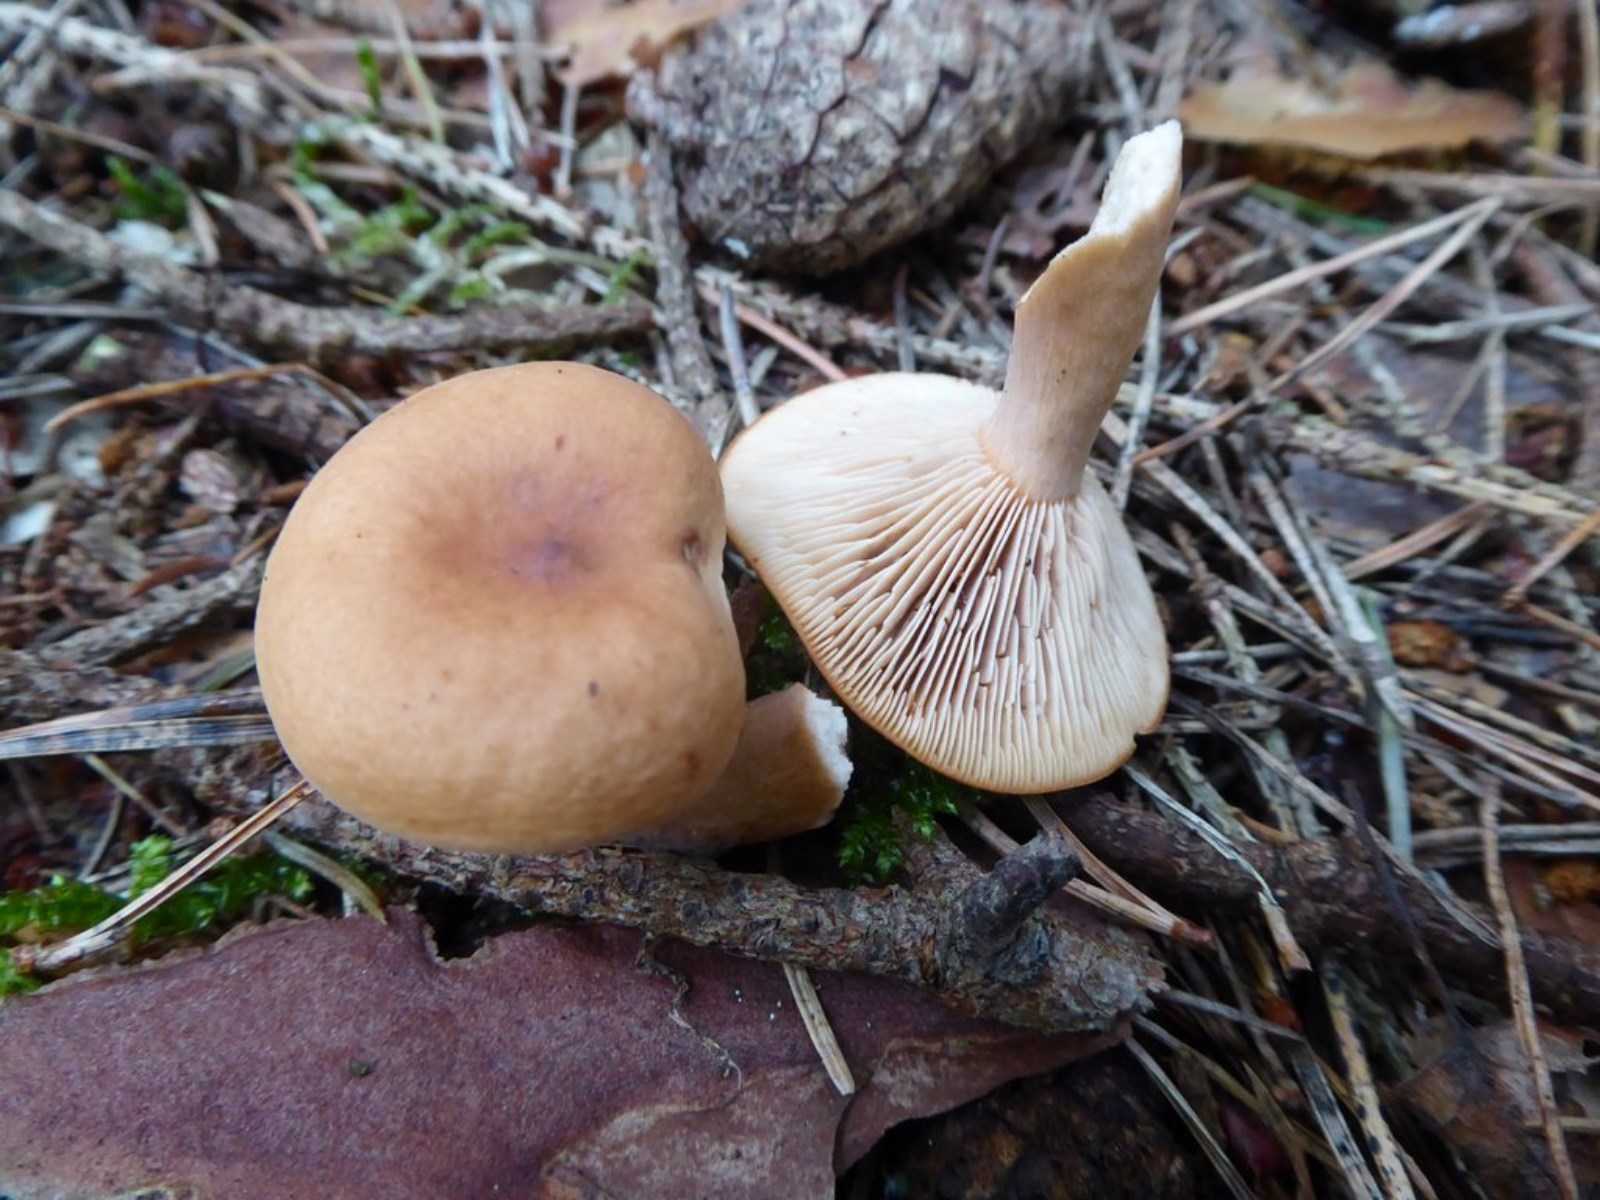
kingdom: Fungi
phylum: Basidiomycota
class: Agaricomycetes
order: Russulales
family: Russulaceae
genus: Lactarius
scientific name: Lactarius tabidus
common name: rynket mælkehat
